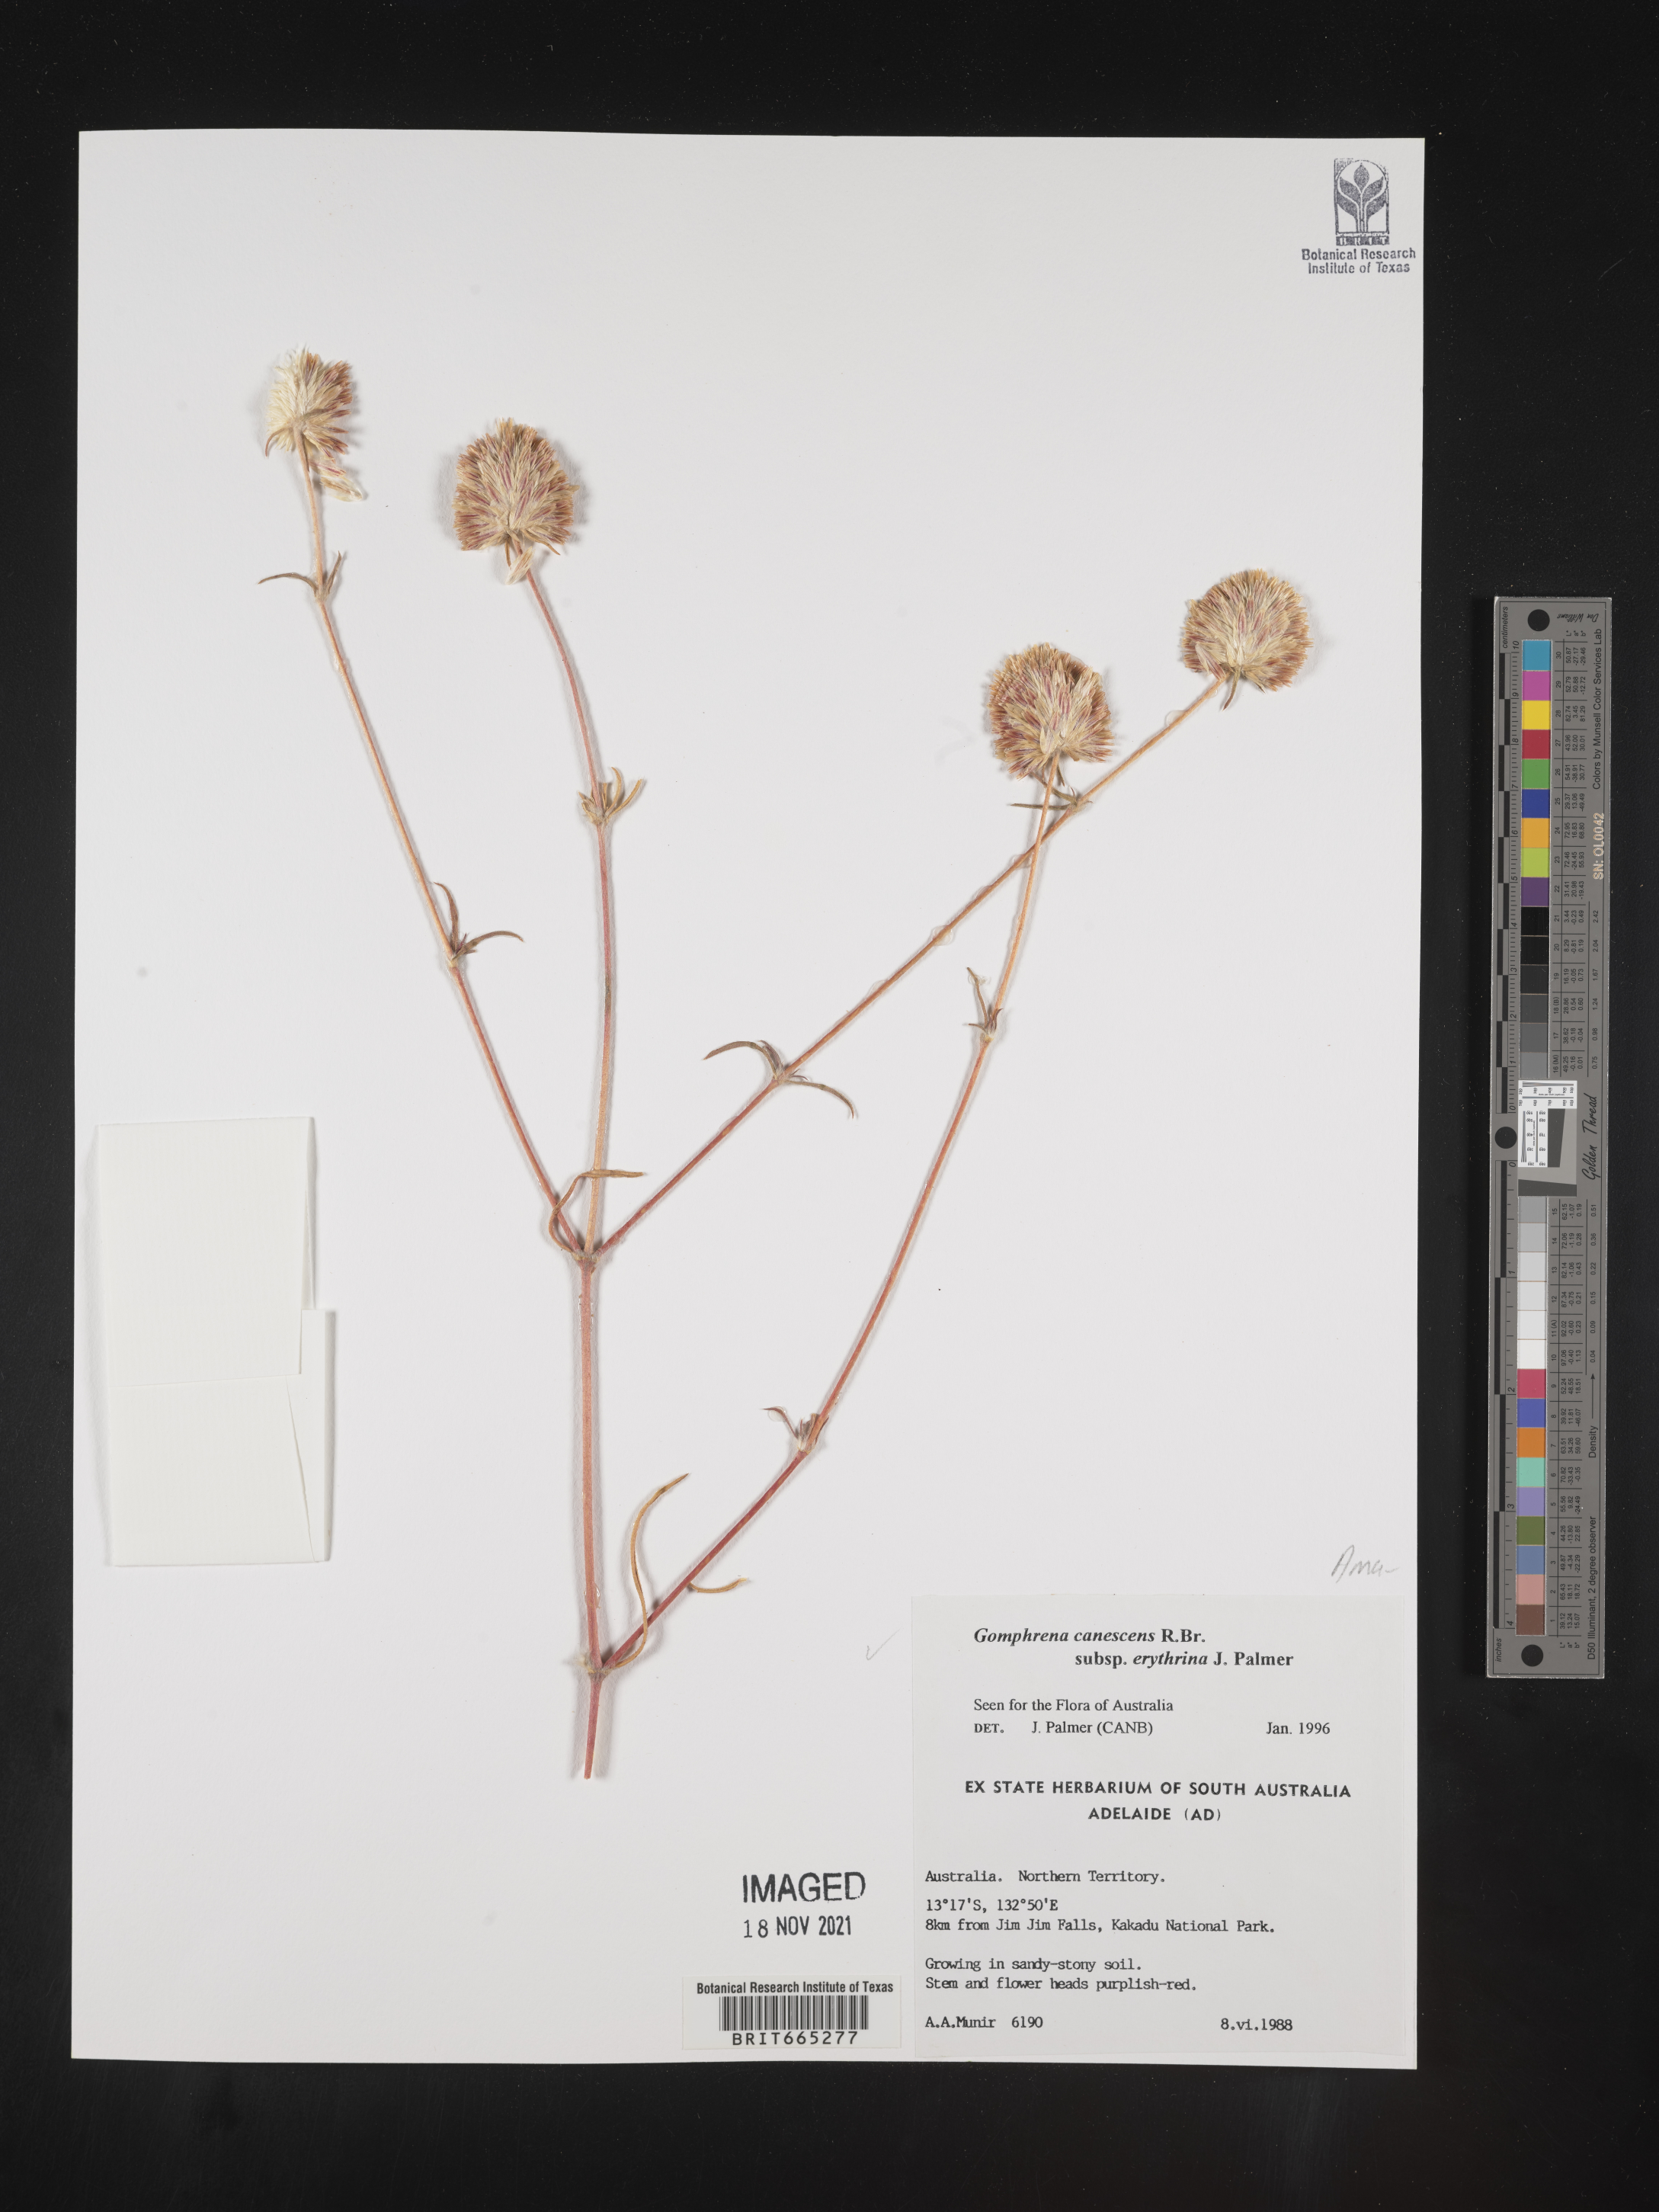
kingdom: Plantae
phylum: Tracheophyta
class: Magnoliopsida
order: Caryophyllales
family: Amaranthaceae
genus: Gomphrena
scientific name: Gomphrena
